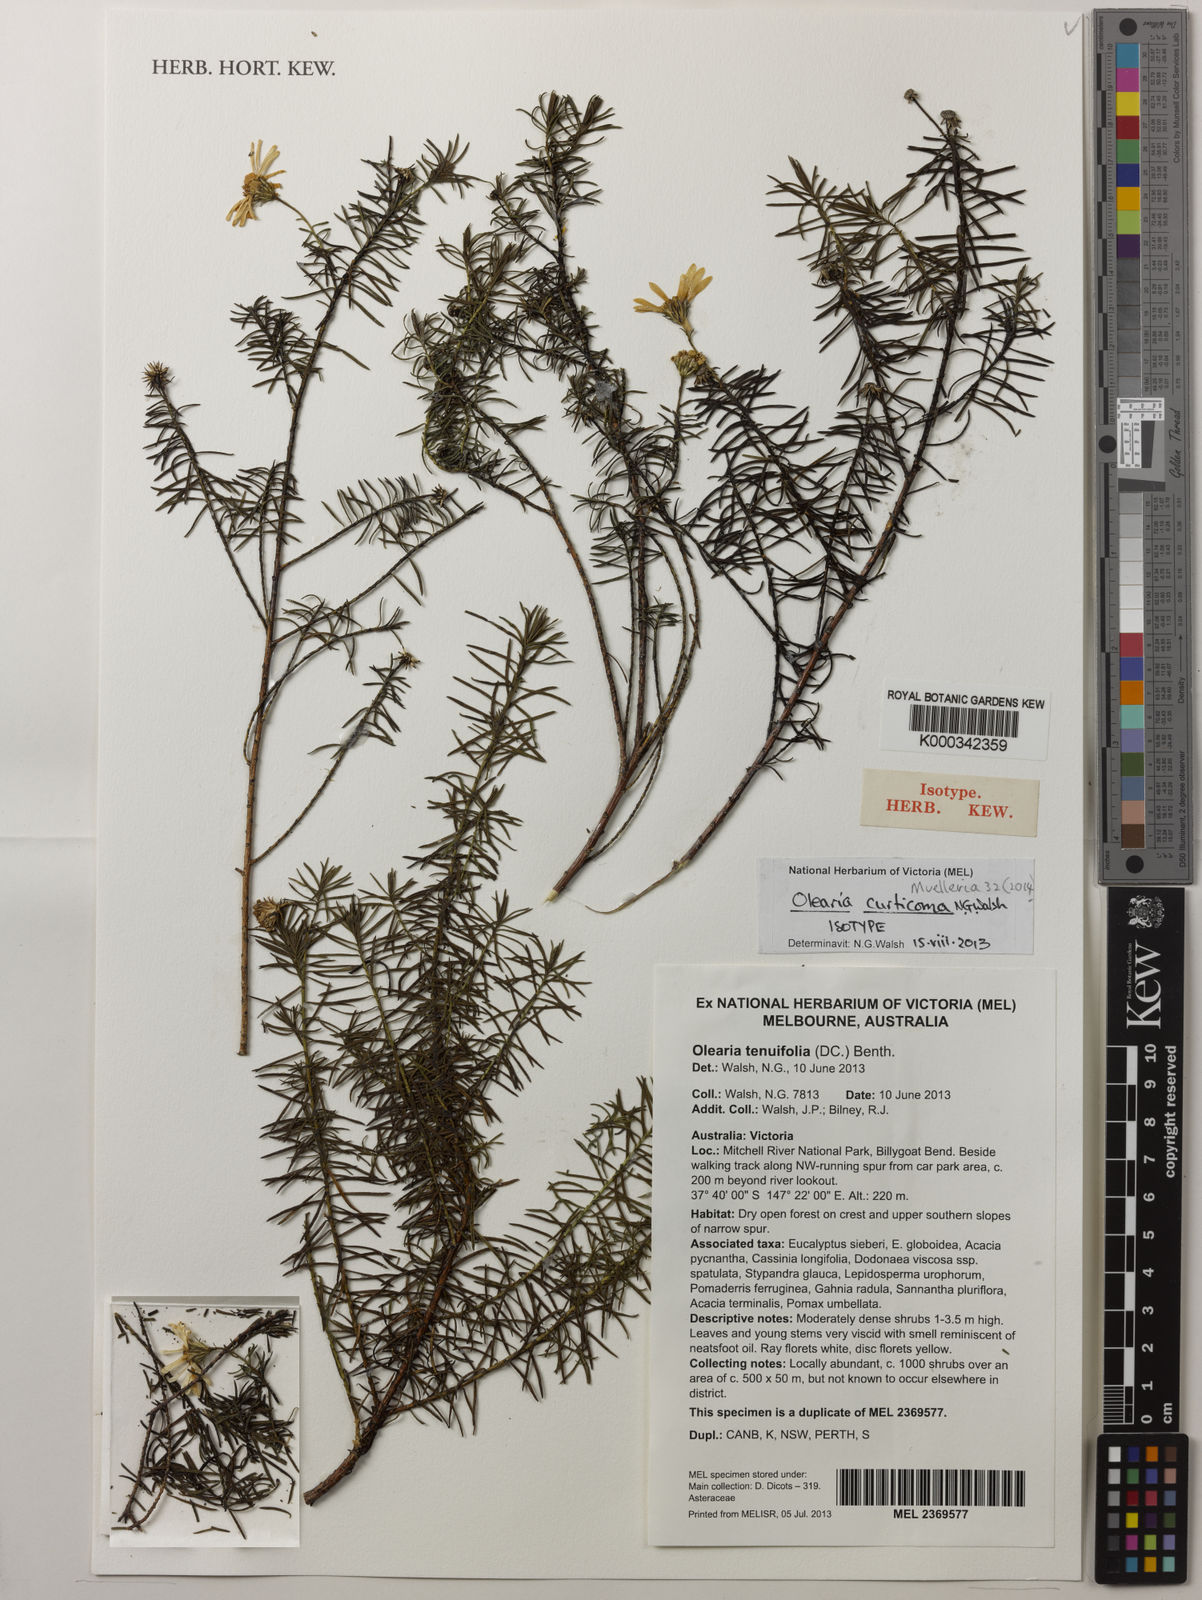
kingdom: Plantae
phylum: Tracheophyta
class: Magnoliopsida
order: Asterales
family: Asteraceae
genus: Olearia
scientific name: Olearia curticoma
